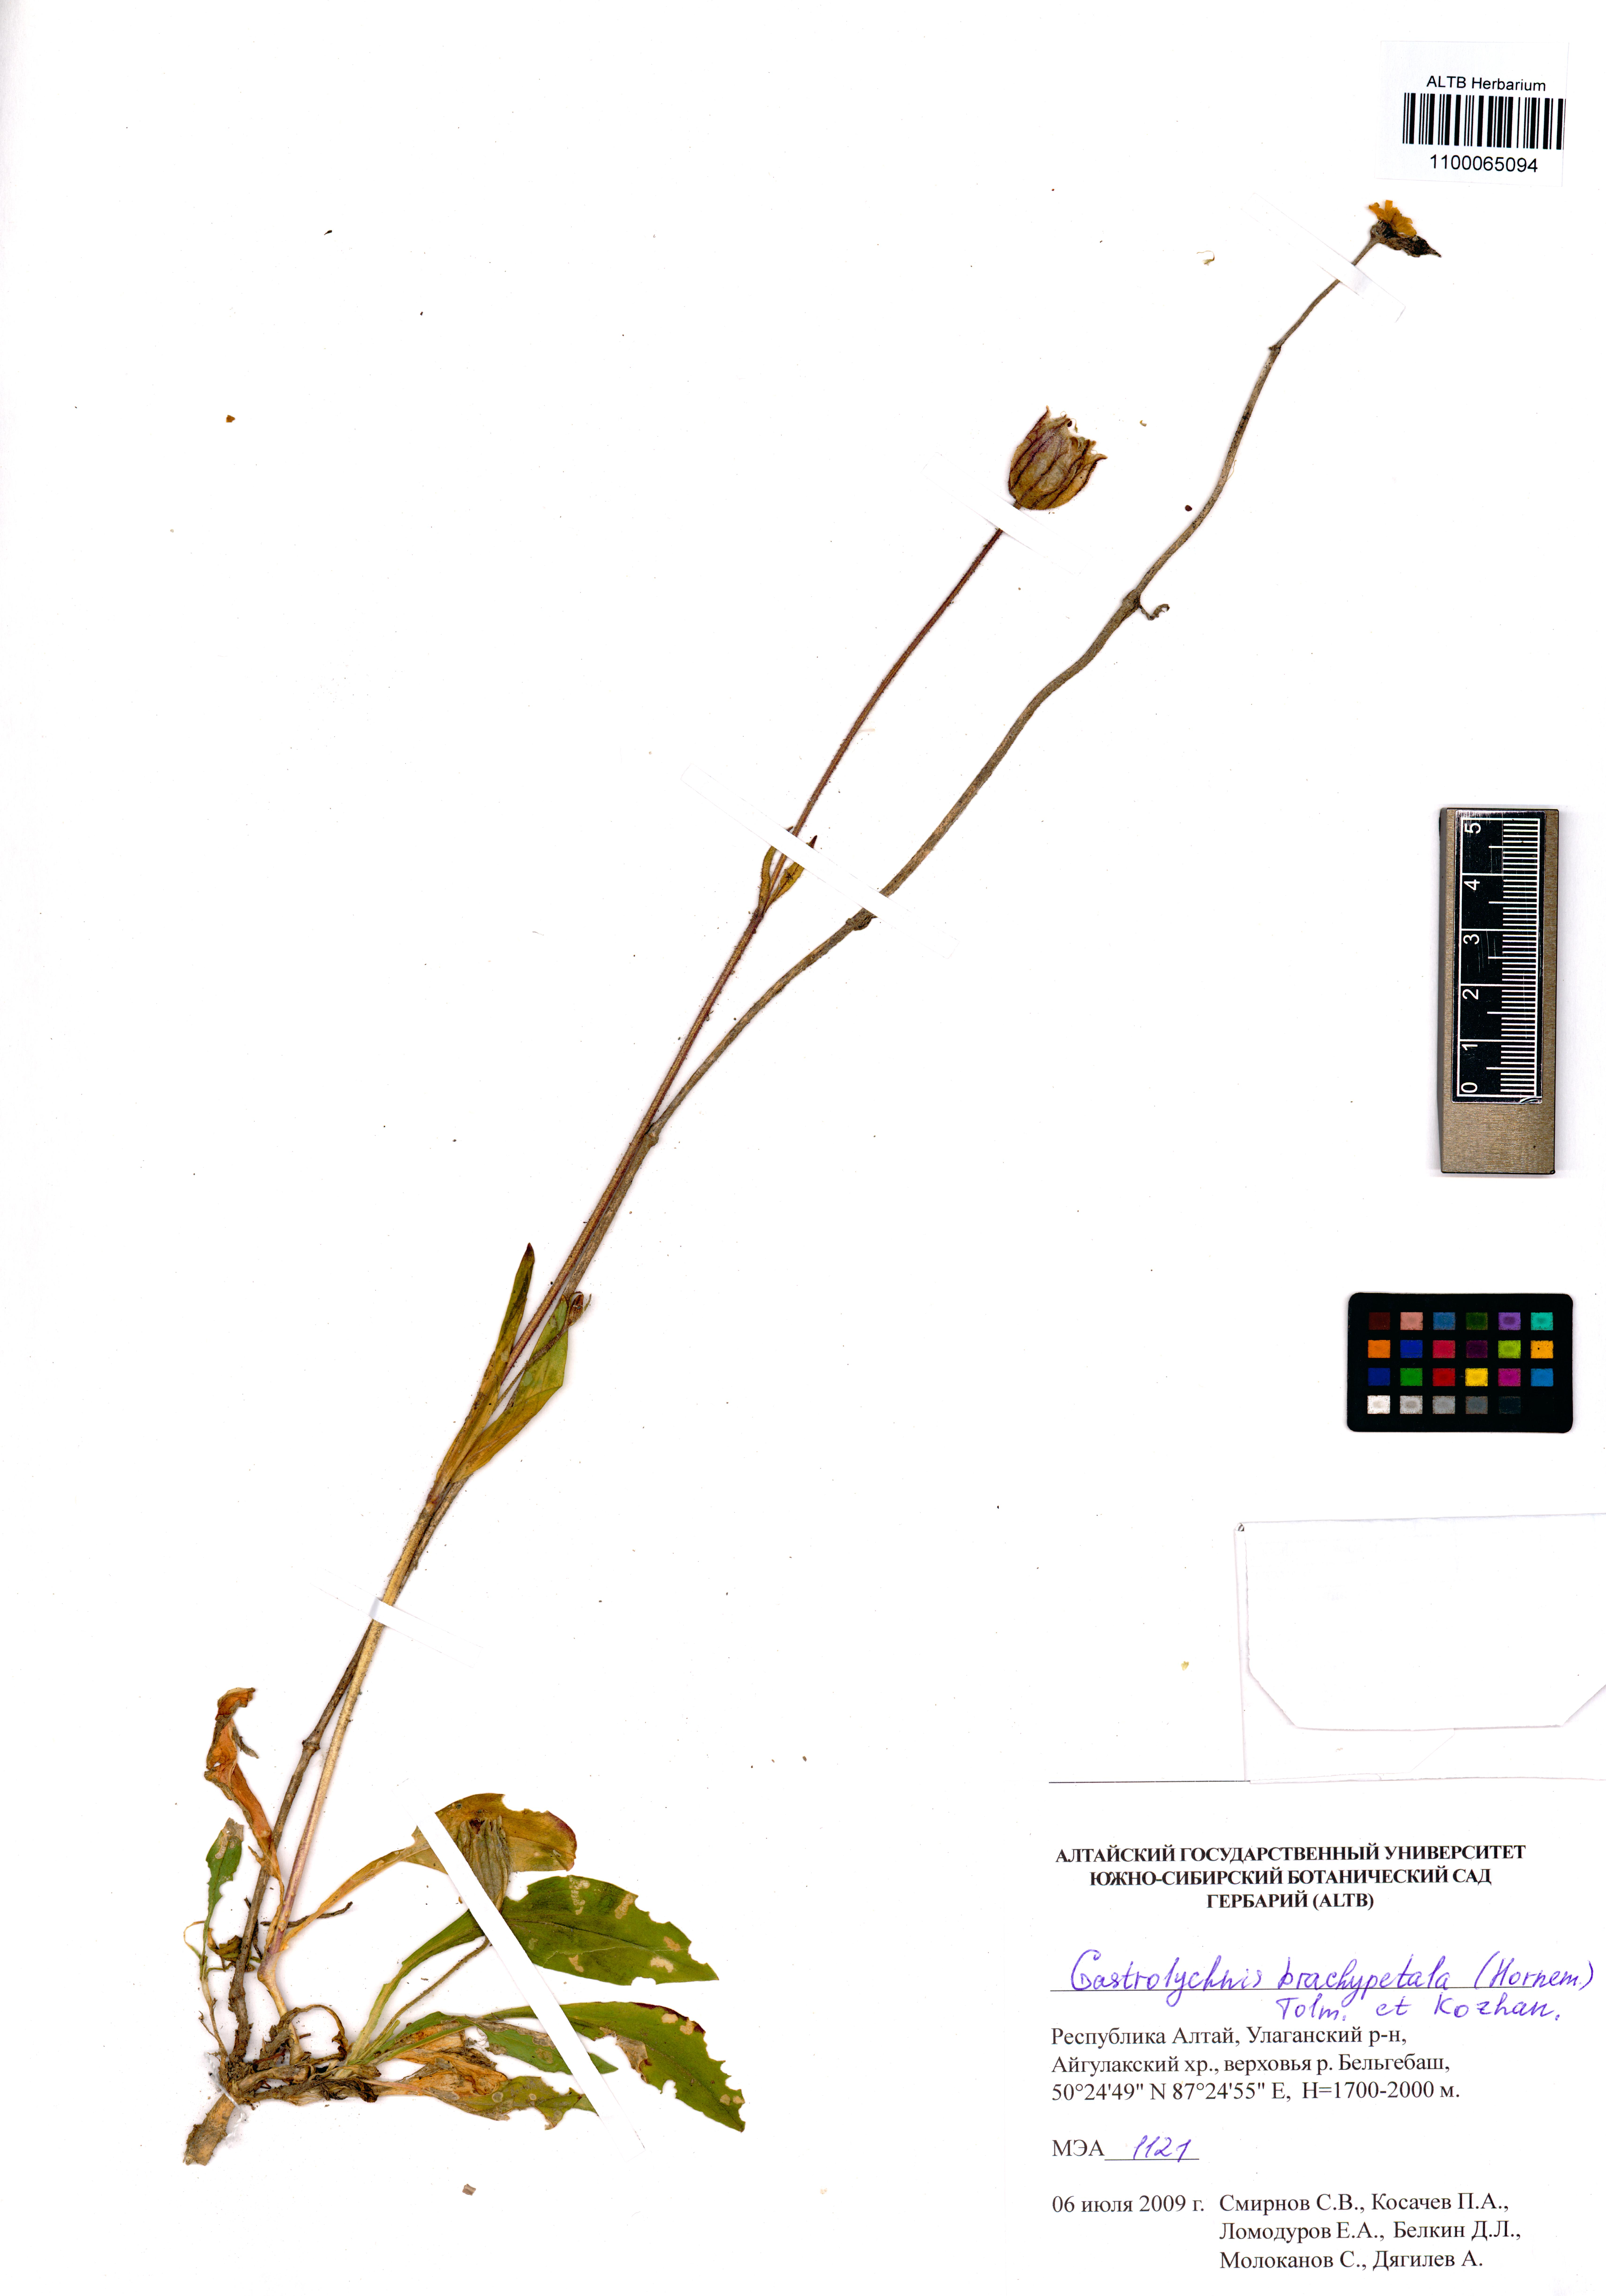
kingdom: Plantae
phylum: Tracheophyta
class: Magnoliopsida
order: Caryophyllales
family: Caryophyllaceae
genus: Silene
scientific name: Silene songarica
